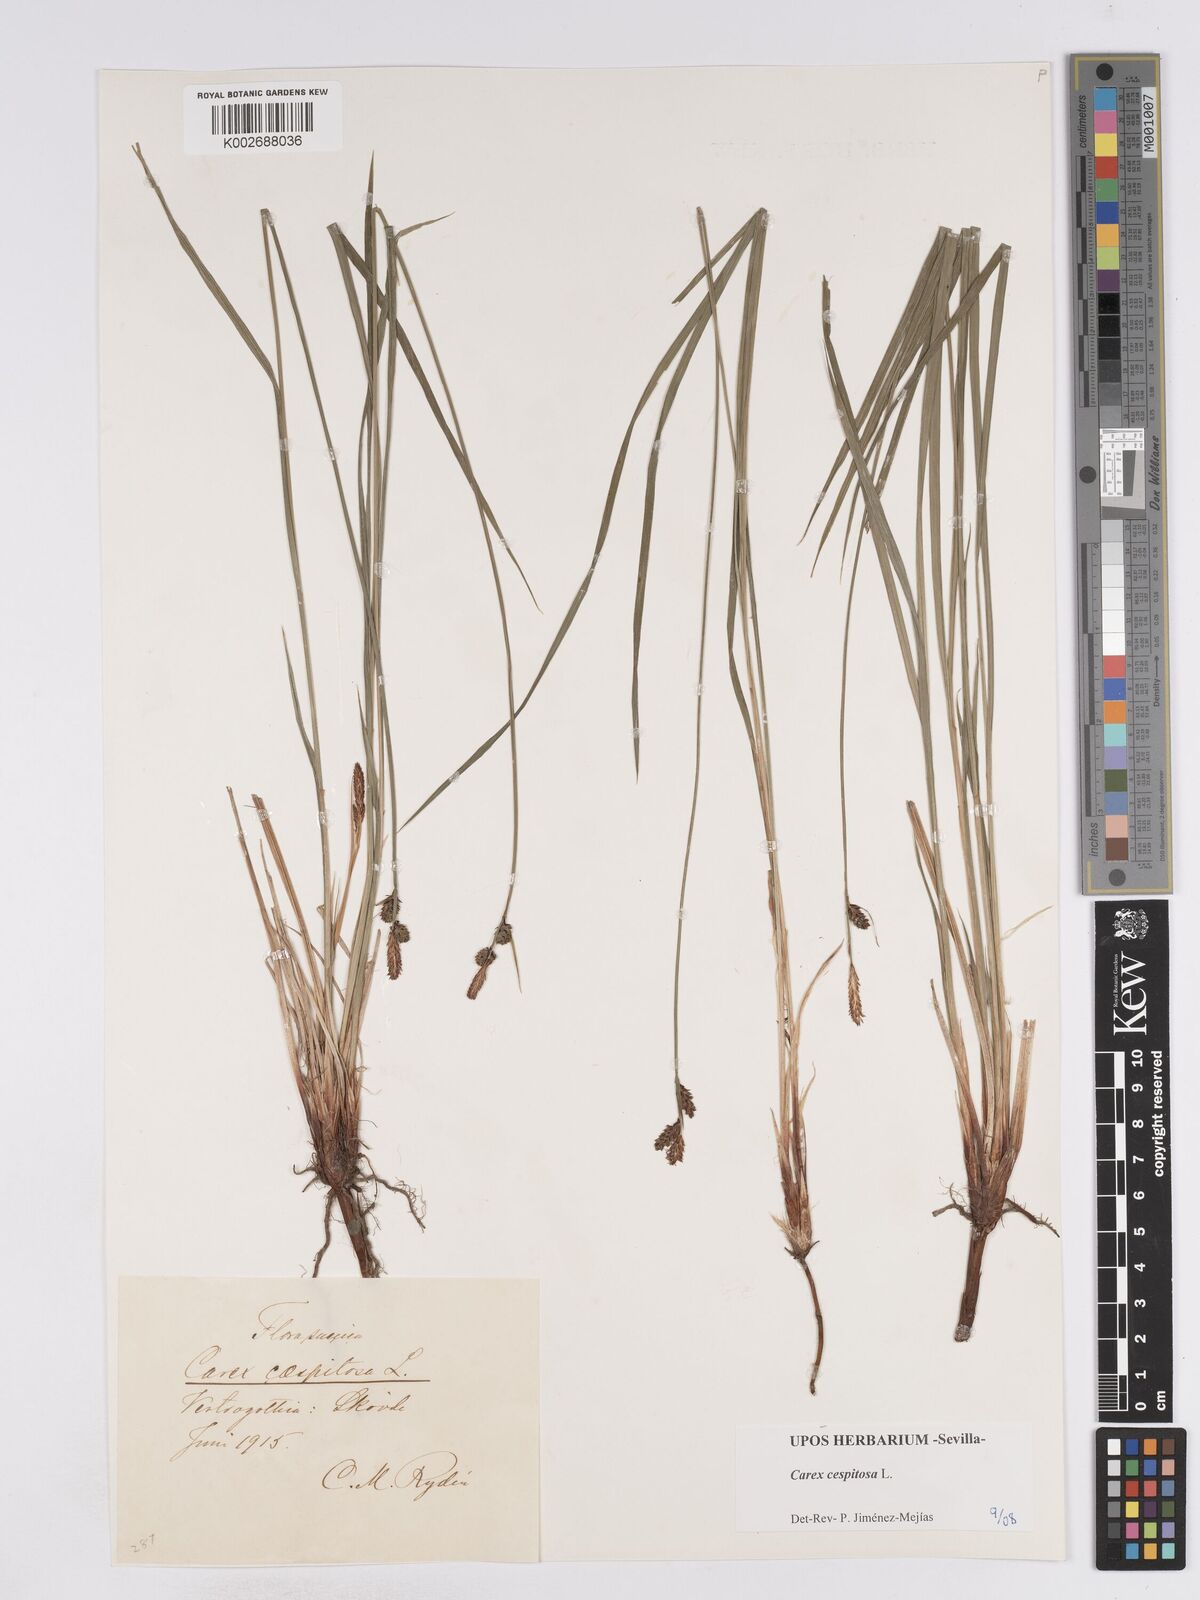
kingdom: Plantae
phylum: Tracheophyta
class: Liliopsida
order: Poales
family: Cyperaceae
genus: Carex
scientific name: Carex
